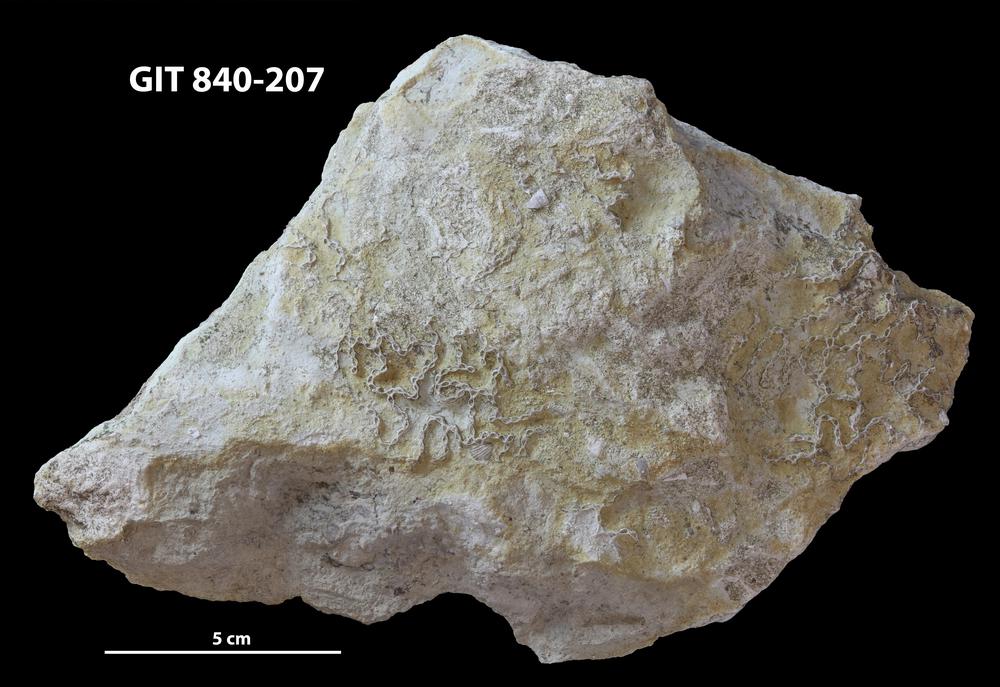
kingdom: Animalia
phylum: Cnidaria
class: Anthozoa
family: Cateniporidae
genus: Catenipora
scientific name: Catenipora
